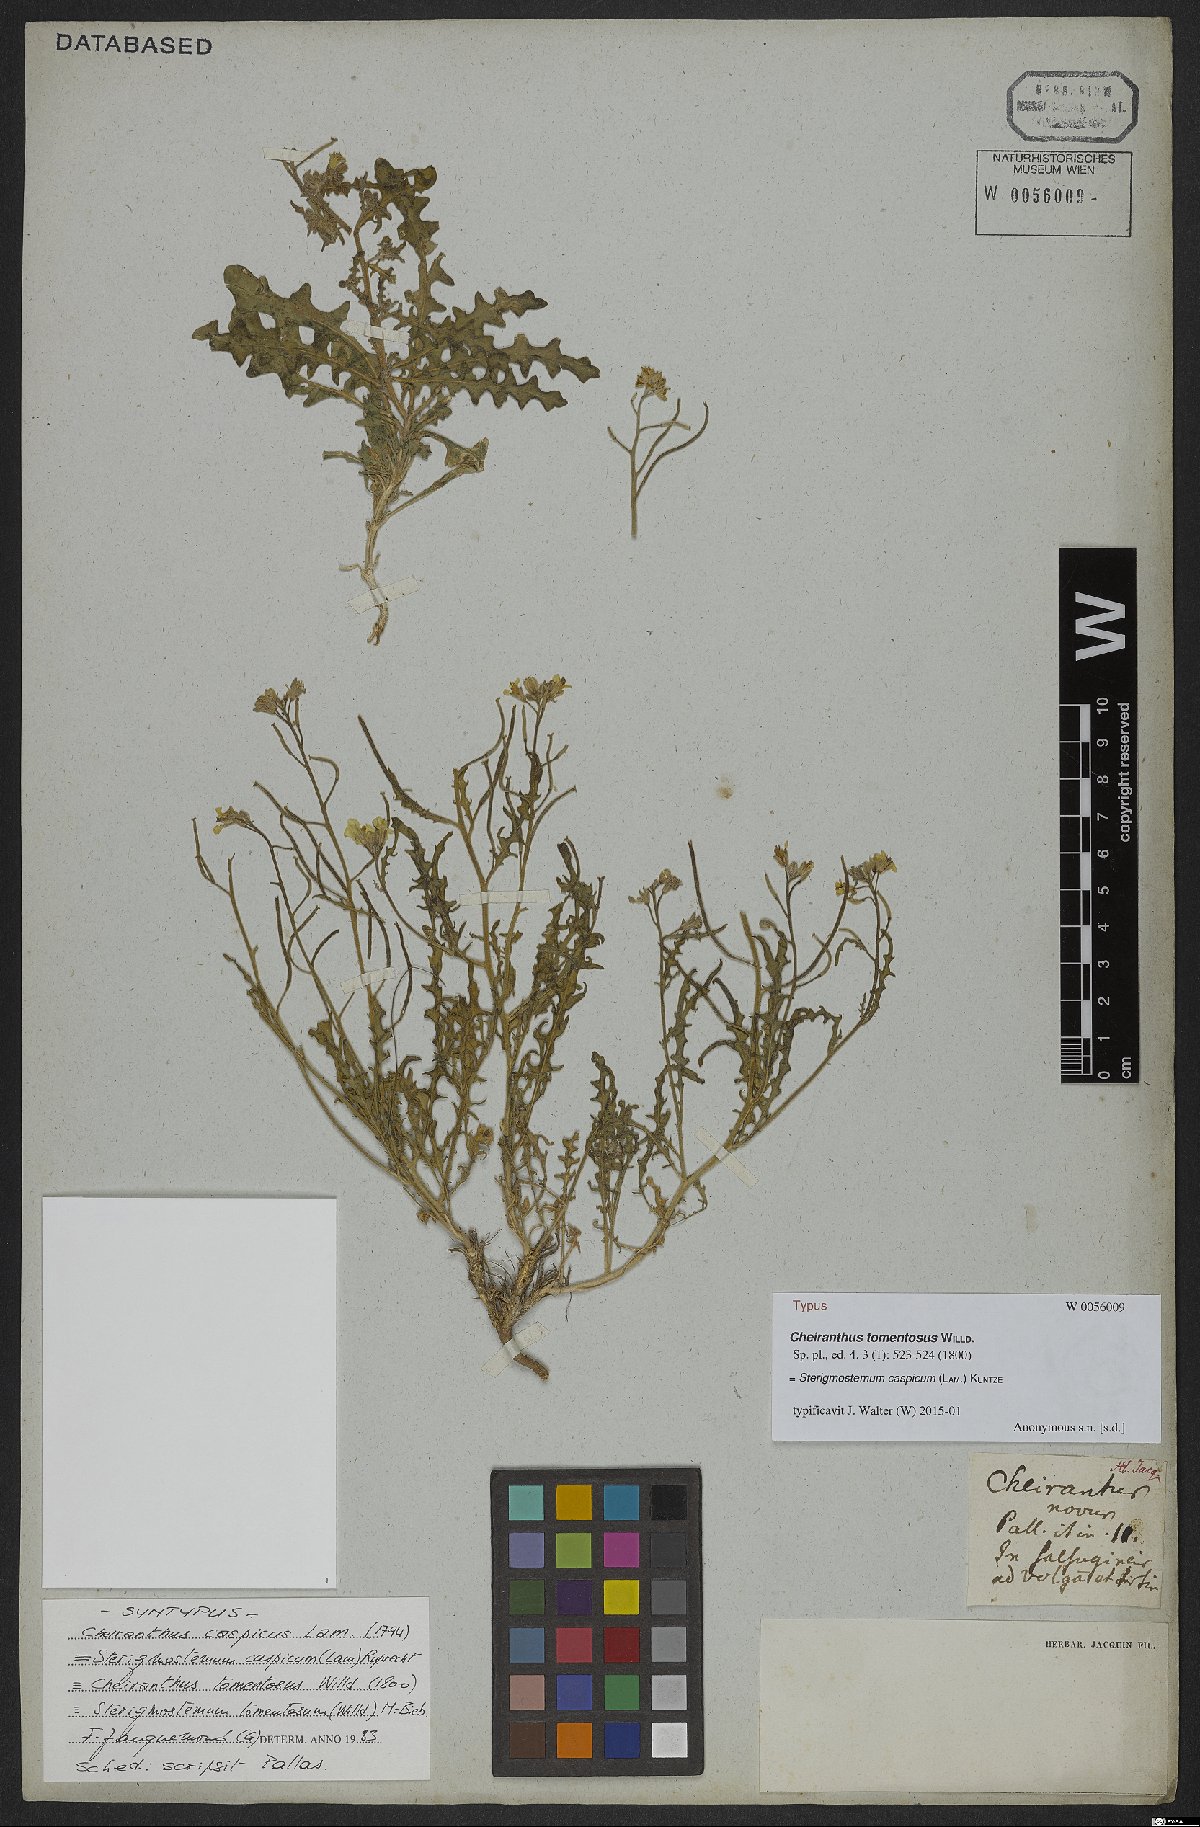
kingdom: Plantae
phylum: Tracheophyta
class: Magnoliopsida
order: Brassicales
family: Brassicaceae
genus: Sterigmostemum
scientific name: Sterigmostemum caspicum
